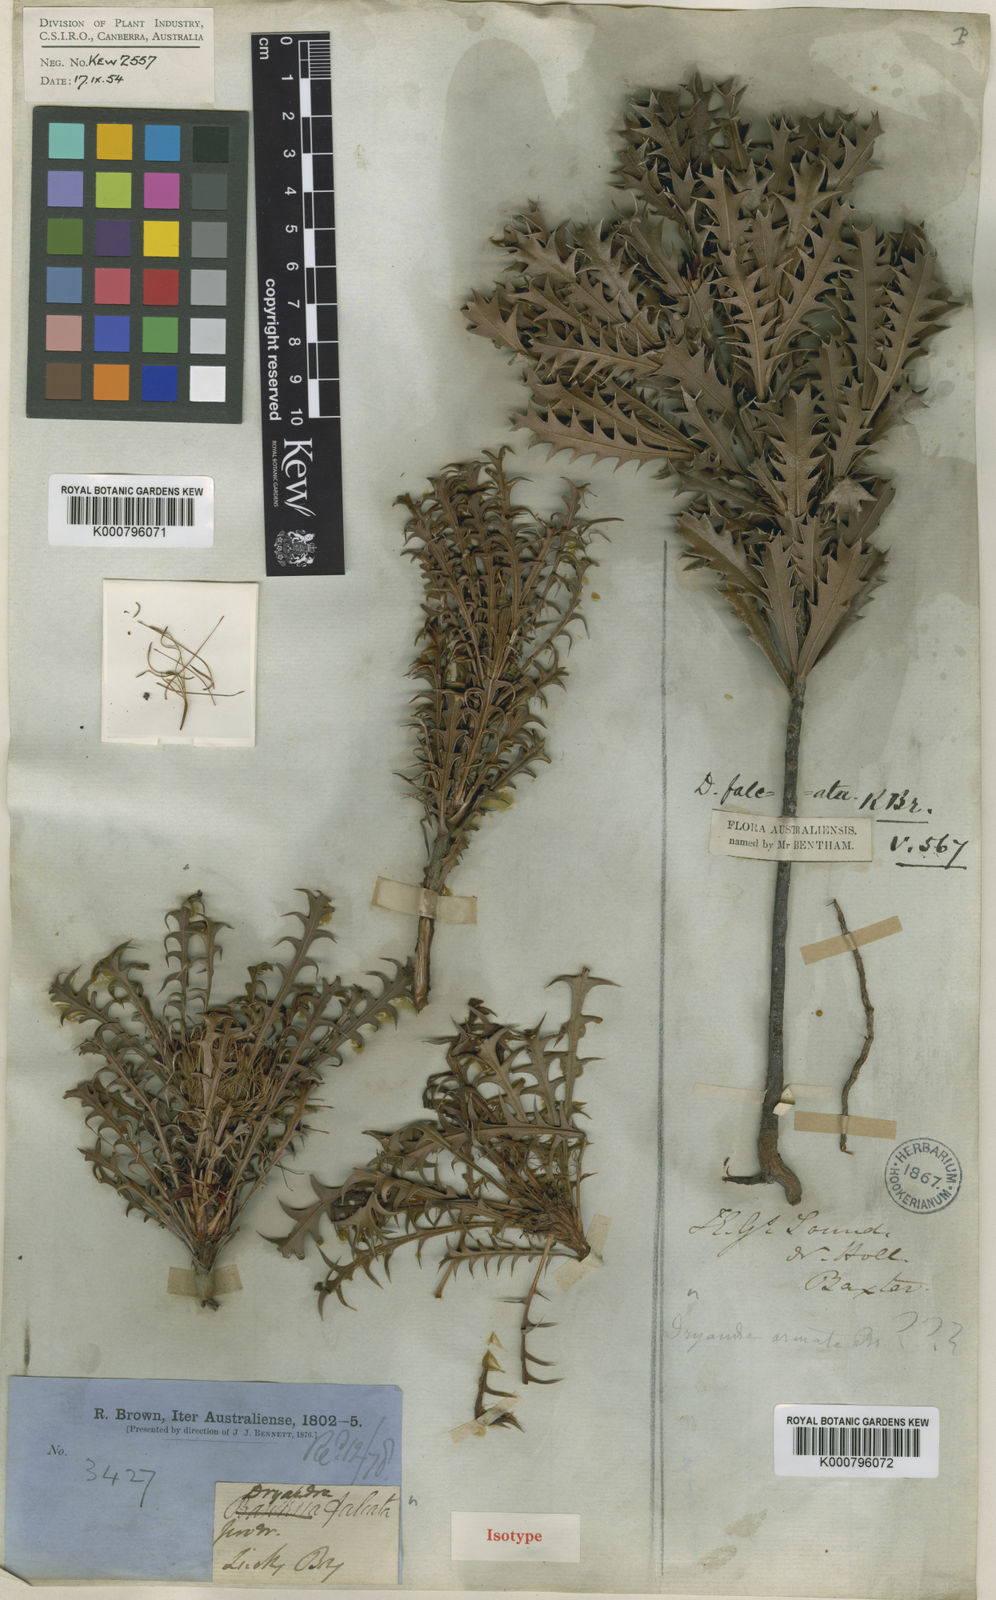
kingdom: Plantae
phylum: Tracheophyta
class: Magnoliopsida
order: Proteales
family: Proteaceae
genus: Banksia
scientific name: Banksia falcata
